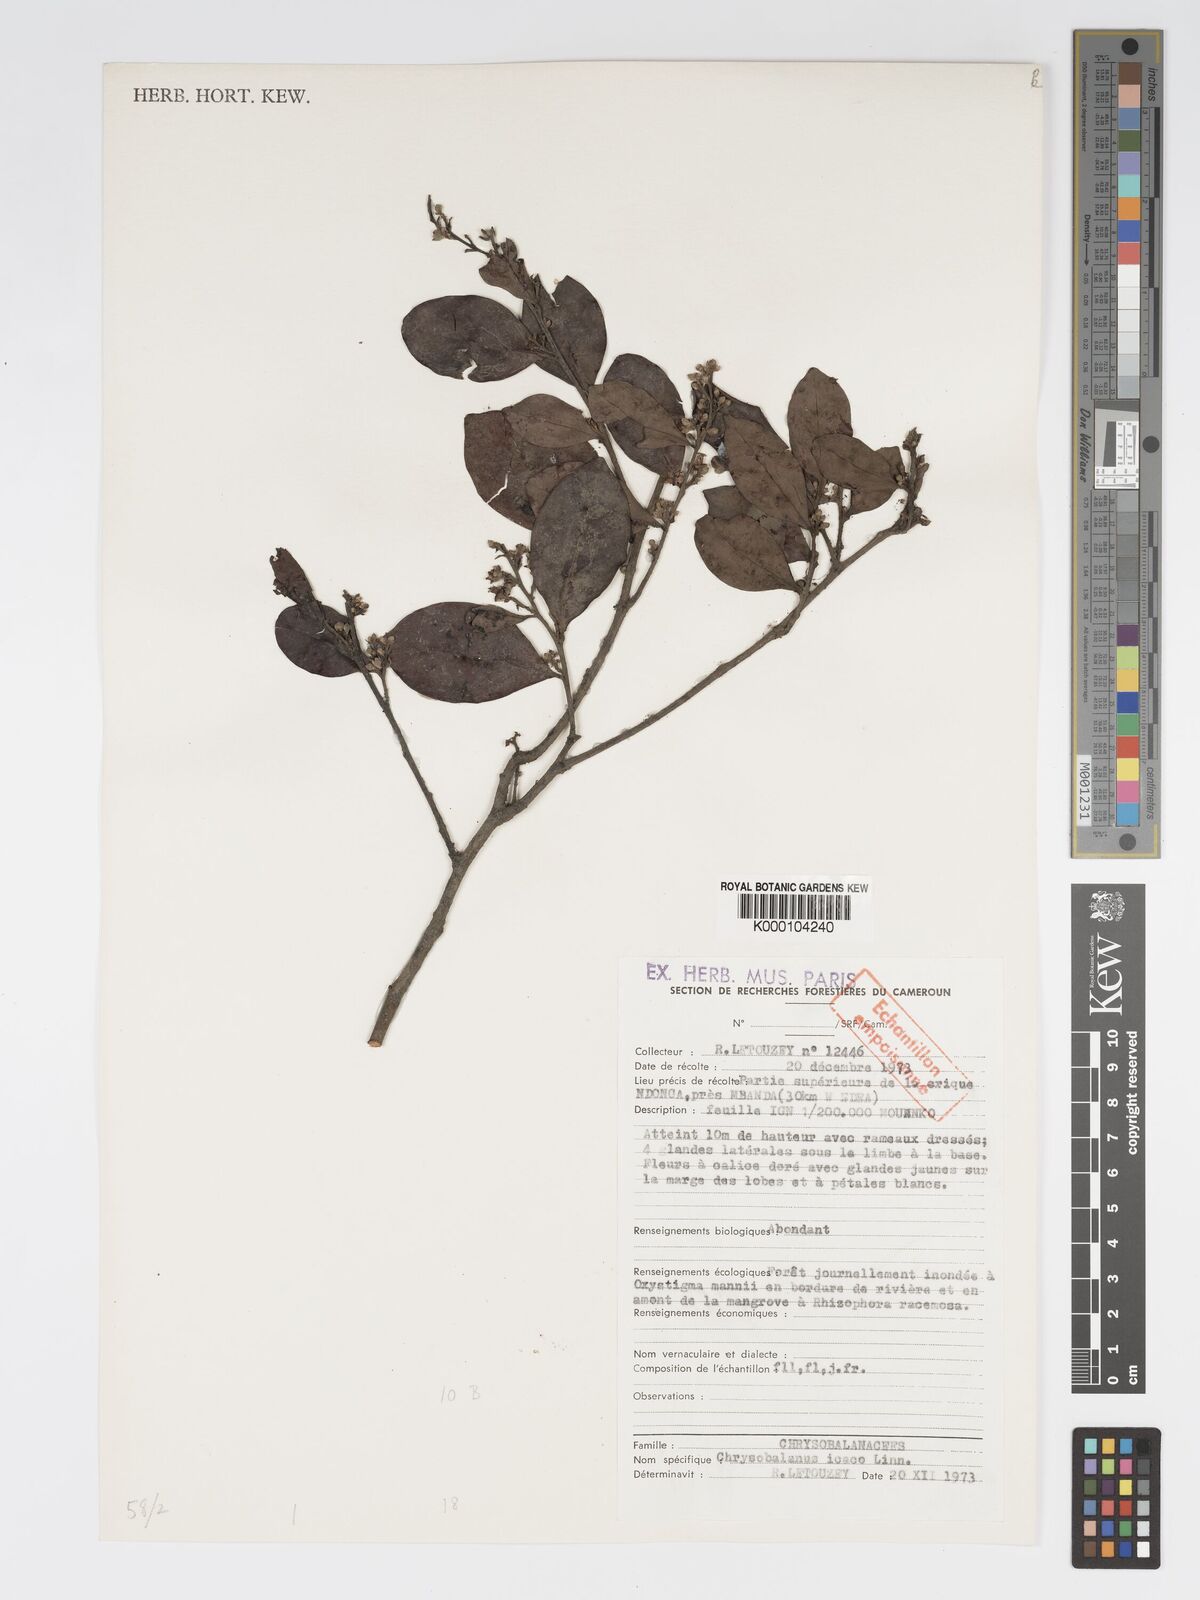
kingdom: Plantae
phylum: Tracheophyta
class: Magnoliopsida
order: Malpighiales
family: Chrysobalanaceae
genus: Chrysobalanus
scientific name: Chrysobalanus icaco
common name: Coco plum
